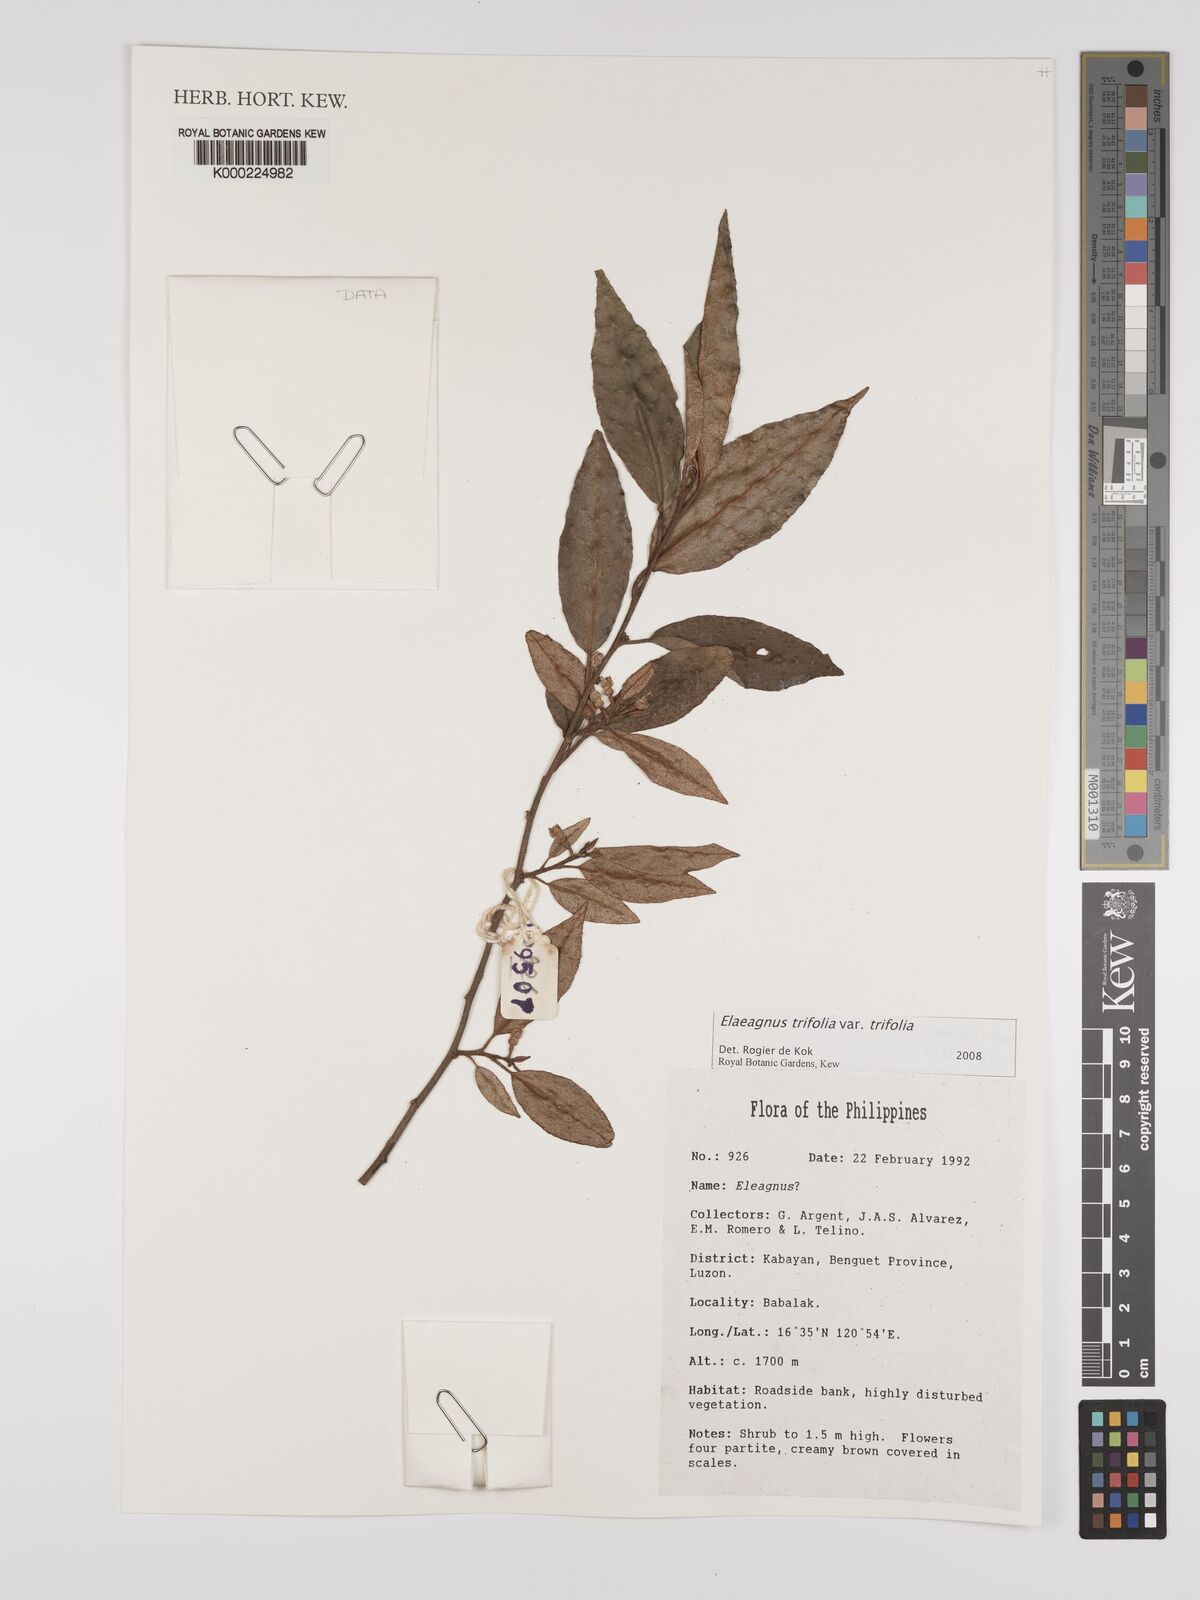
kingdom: Plantae
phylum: Tracheophyta
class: Magnoliopsida
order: Rosales
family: Elaeagnaceae
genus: Elaeagnus
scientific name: Elaeagnus
